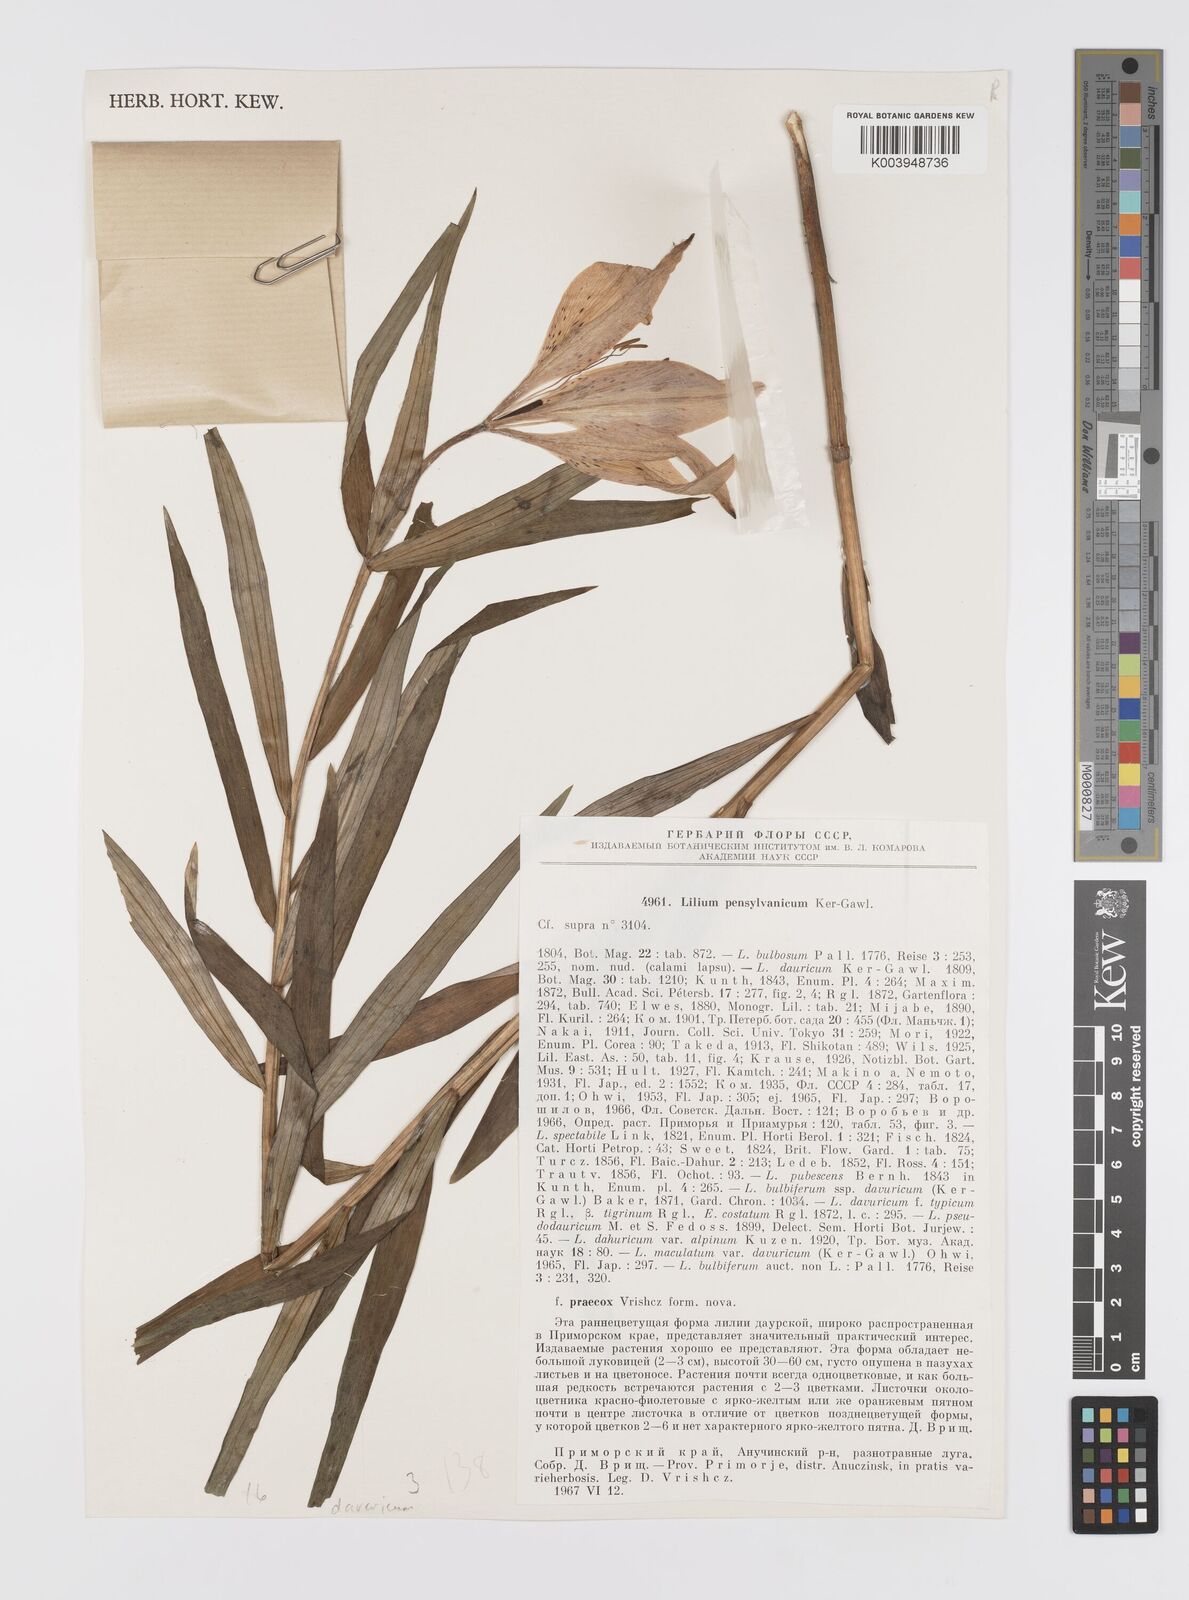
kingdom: Plantae
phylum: Tracheophyta
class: Liliopsida
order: Liliales
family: Liliaceae
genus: Lilium
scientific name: Lilium pensylvanicum
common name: Candlestick lily
